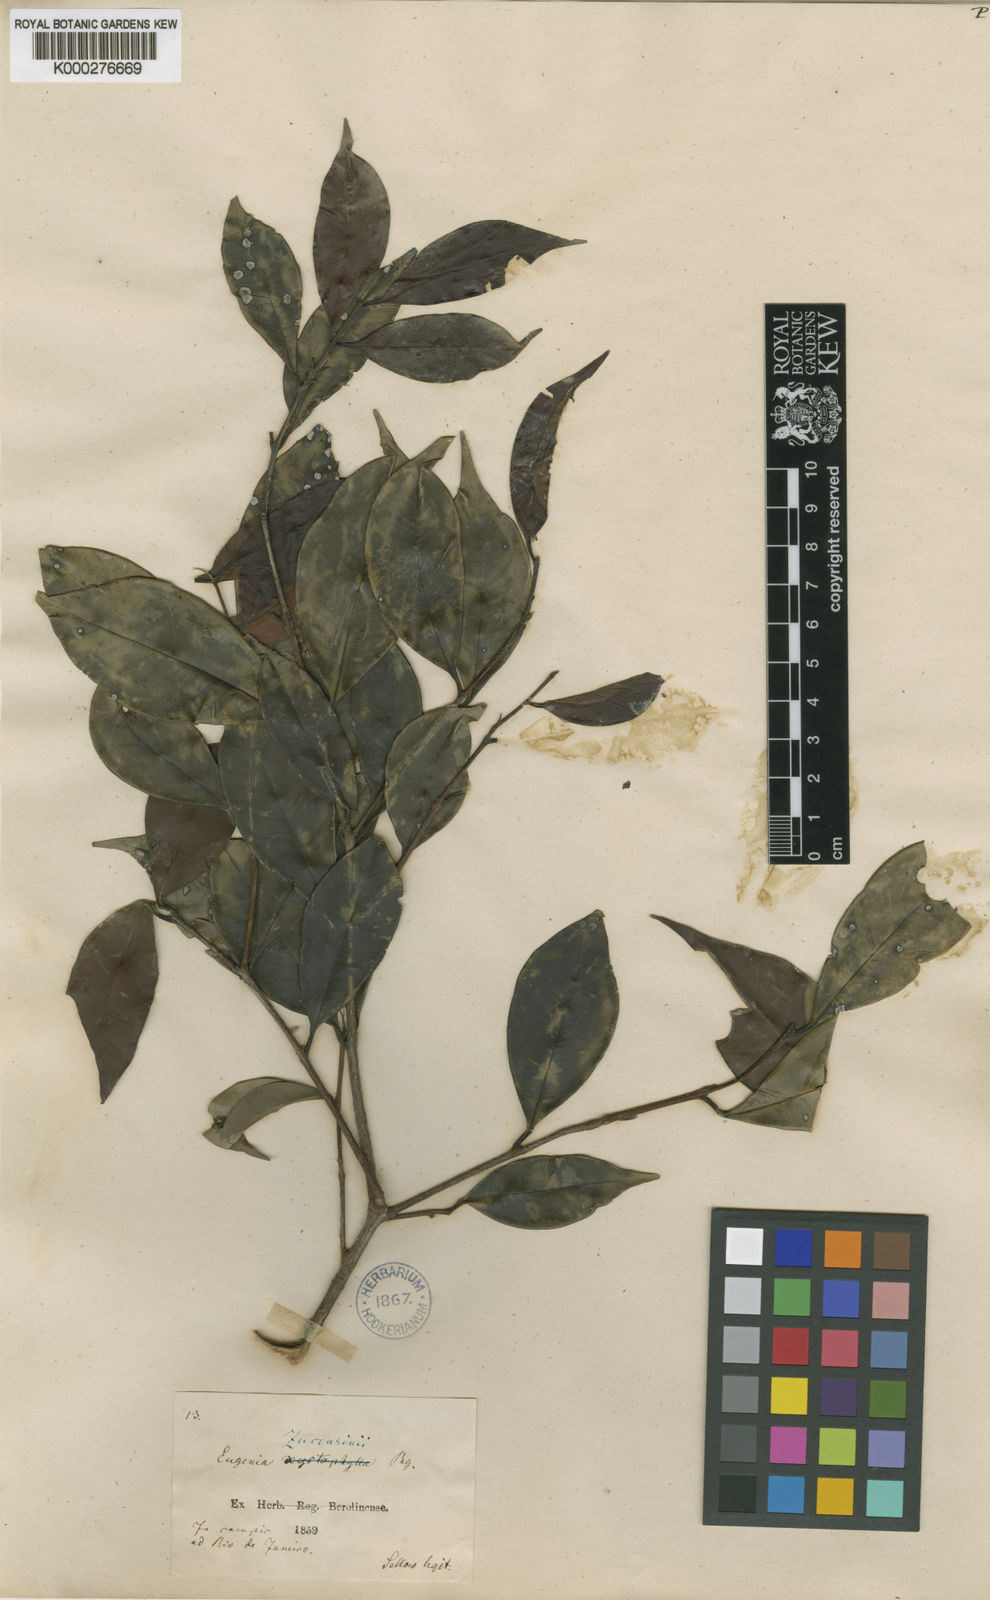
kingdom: Plantae
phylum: Tracheophyta
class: Magnoliopsida
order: Myrtales
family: Myrtaceae
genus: Eugenia
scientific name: Eugenia zuccarinii
